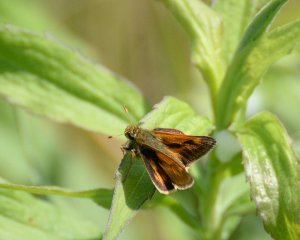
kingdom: Animalia
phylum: Arthropoda
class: Insecta
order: Lepidoptera
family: Hesperiidae
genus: Polites
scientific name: Polites
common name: Long Dash Skipper
